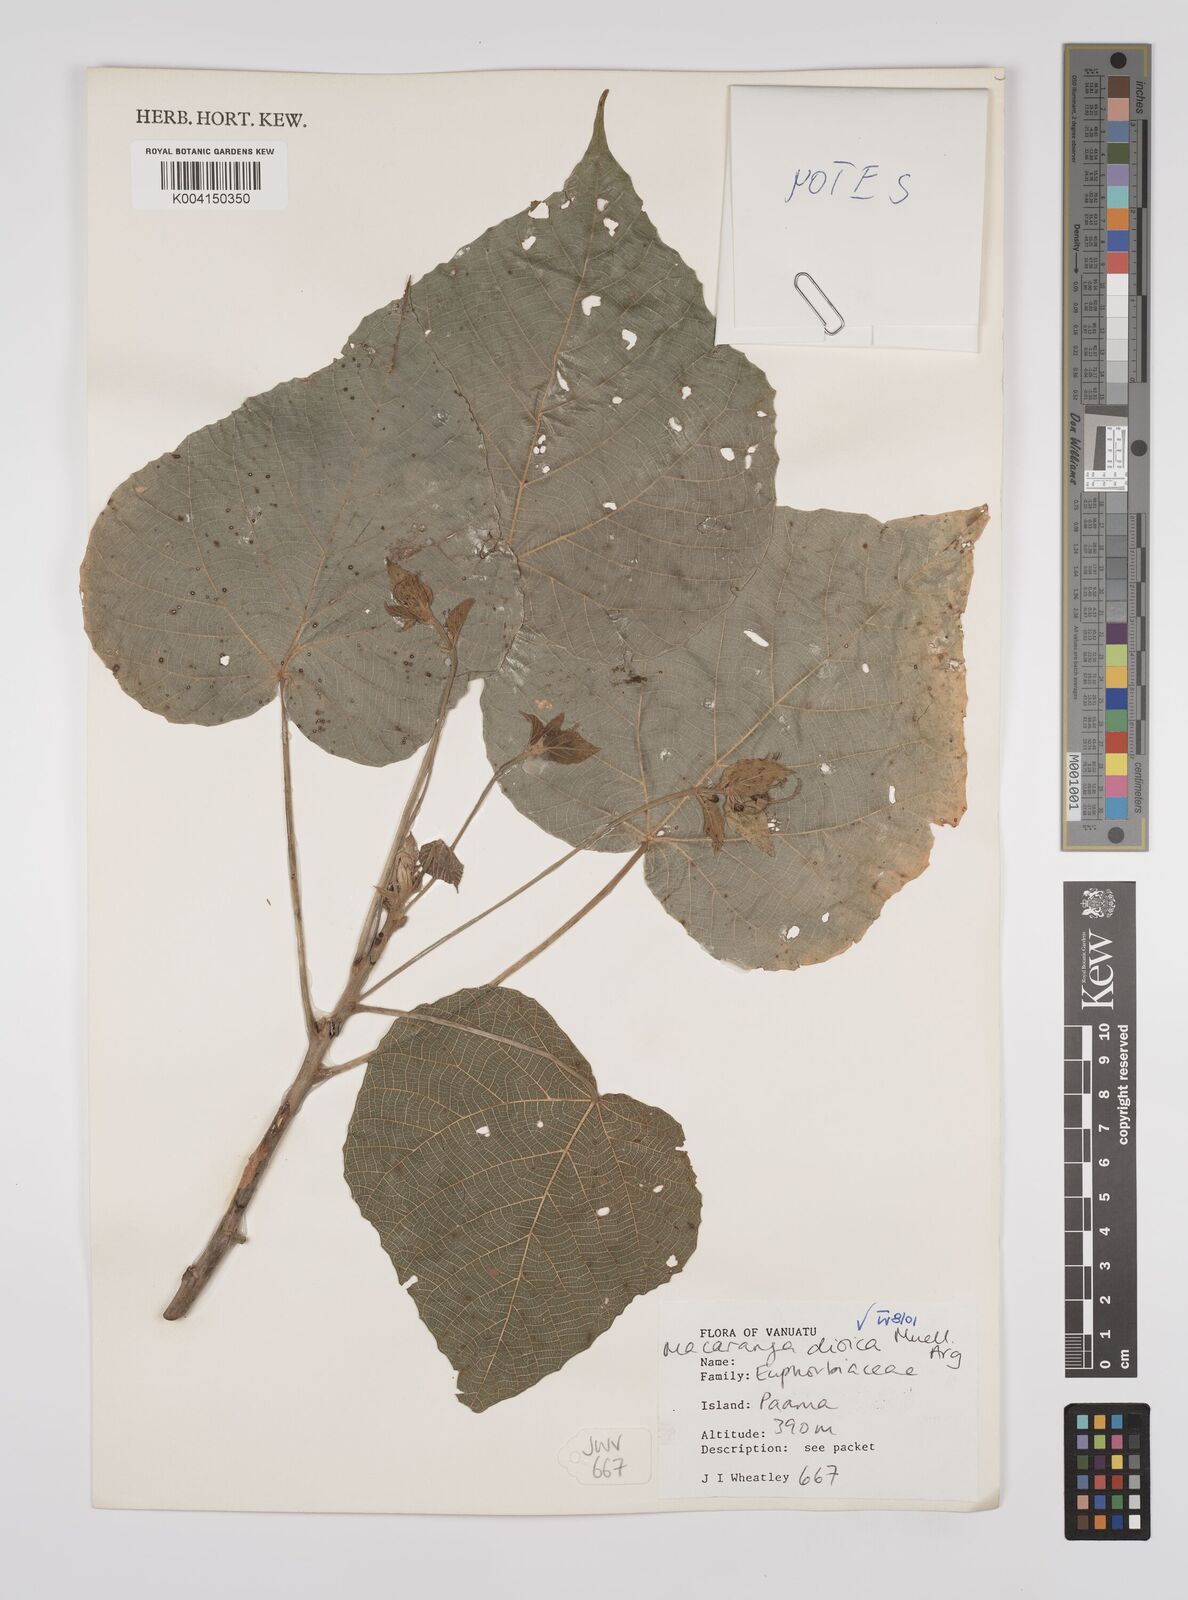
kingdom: Plantae
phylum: Tracheophyta
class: Magnoliopsida
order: Malpighiales
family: Euphorbiaceae
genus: Macaranga
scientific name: Macaranga dioica
